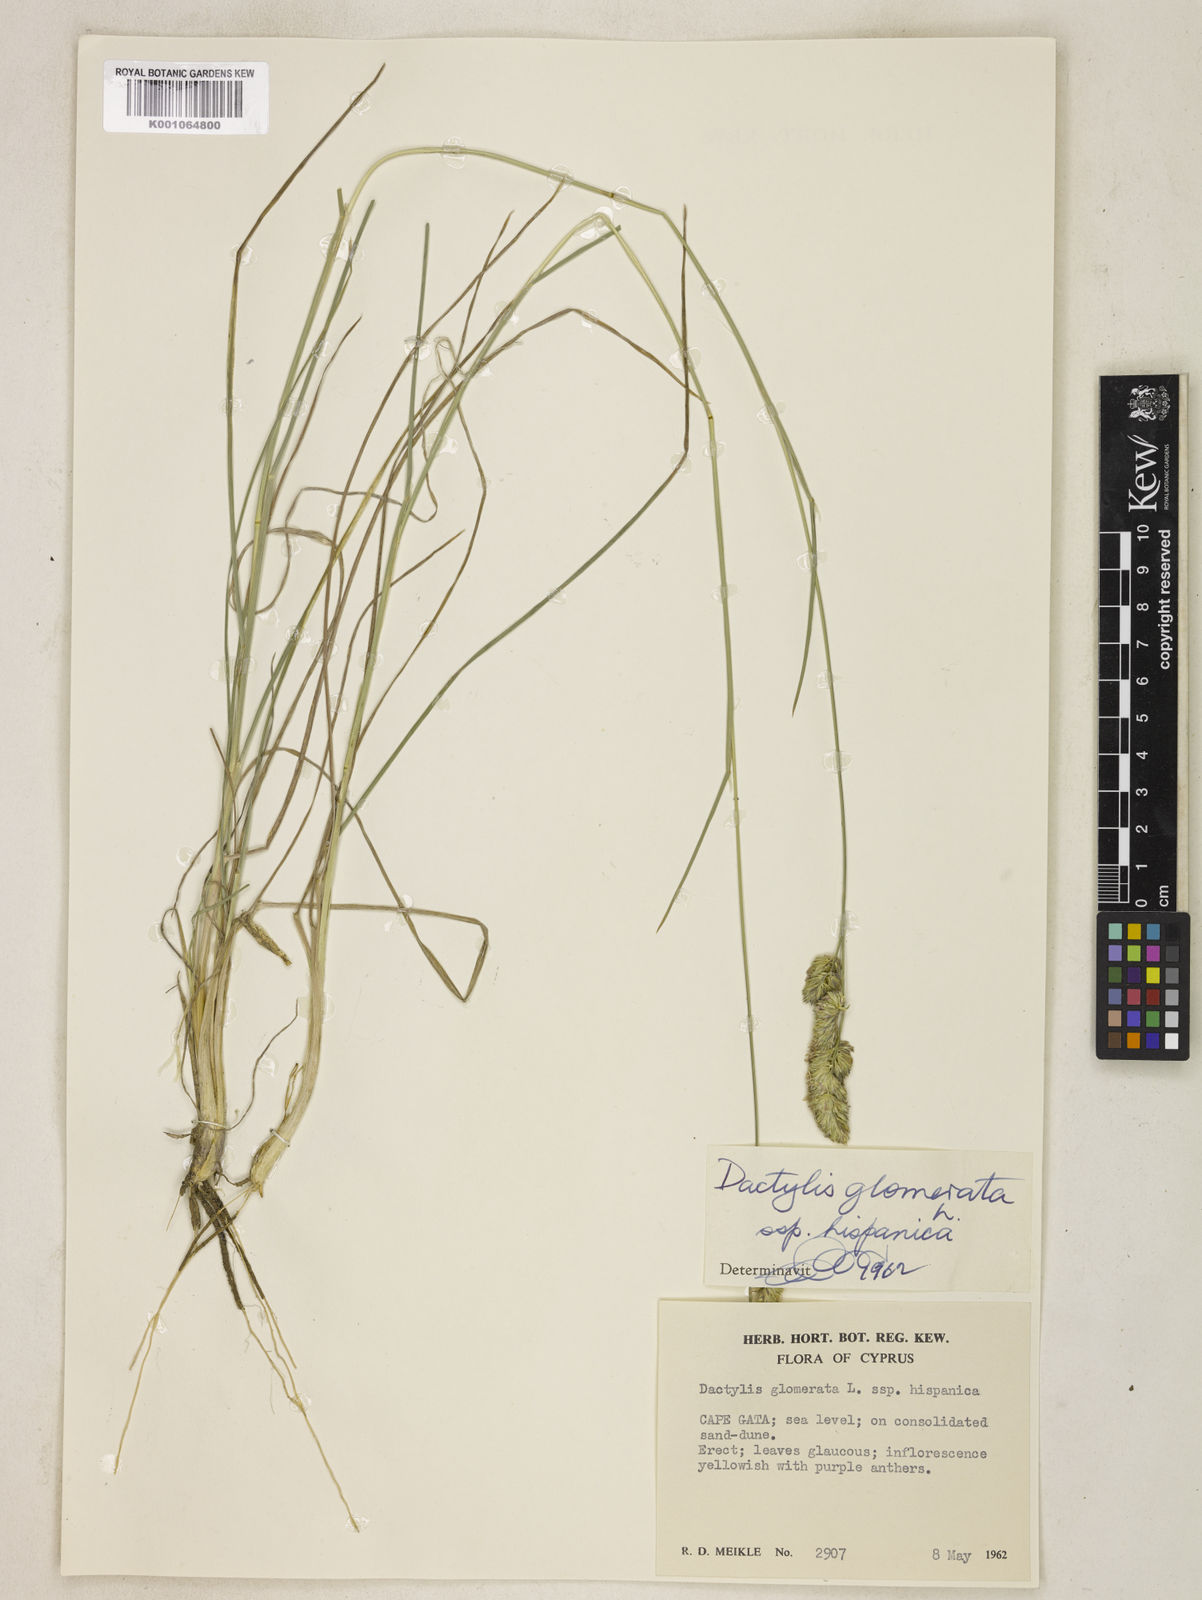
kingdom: Plantae
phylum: Tracheophyta
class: Liliopsida
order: Poales
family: Poaceae
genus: Dactylis
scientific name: Dactylis glomerata
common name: Orchardgrass
